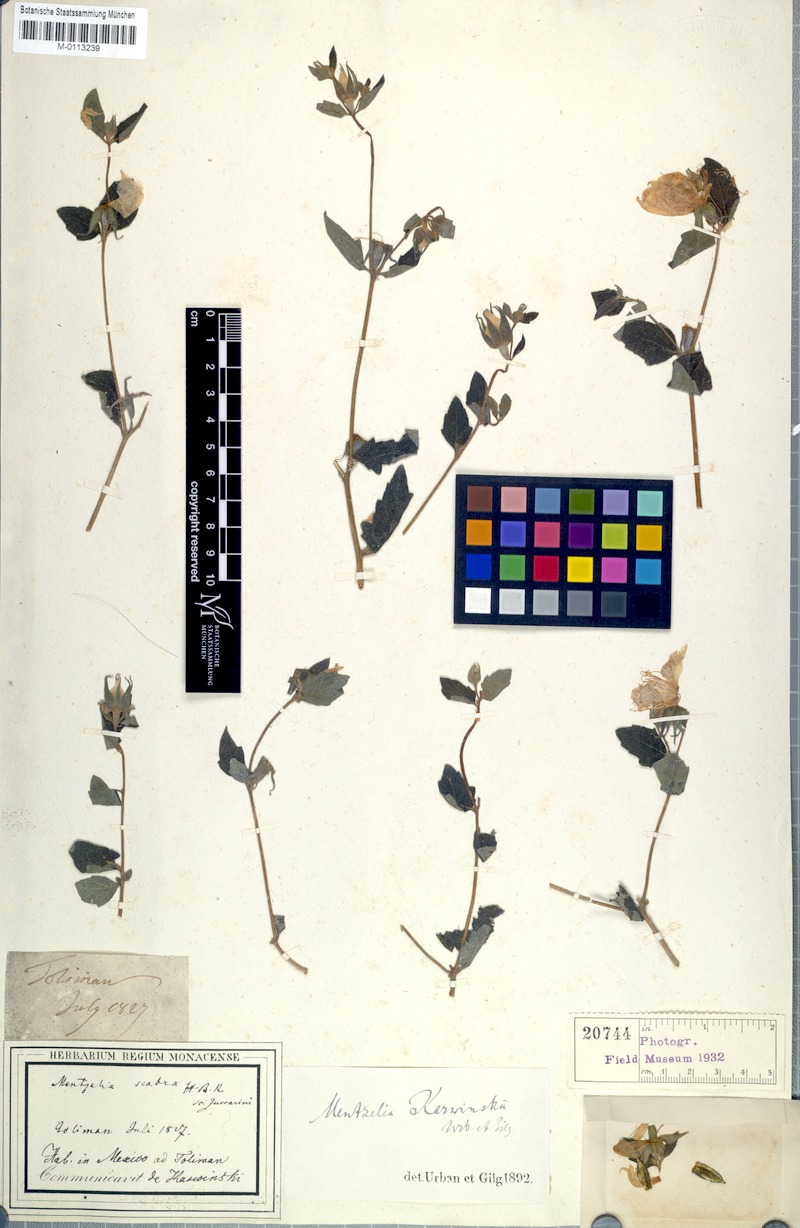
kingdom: Plantae
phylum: Tracheophyta
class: Magnoliopsida
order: Cornales
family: Loasaceae
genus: Mentzelia
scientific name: Mentzelia hispida
